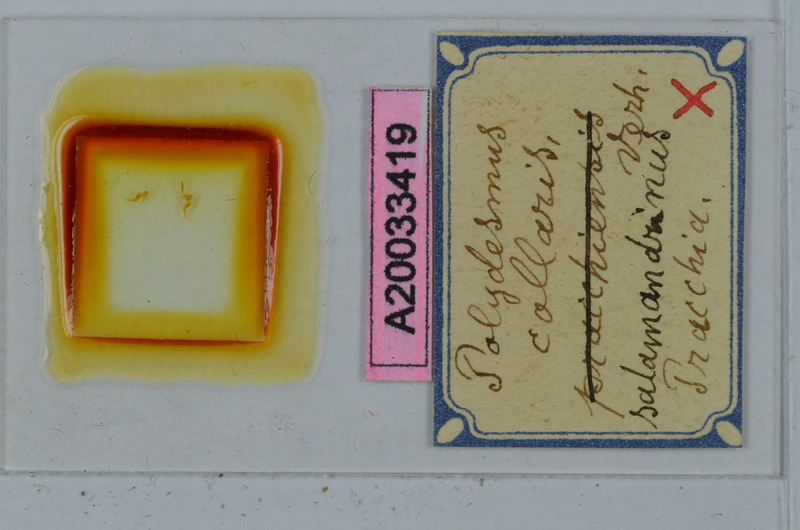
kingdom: Animalia
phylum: Arthropoda
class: Diplopoda
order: Polydesmida
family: Polydesmidae
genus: Polydesmus
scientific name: Polydesmus collaris
